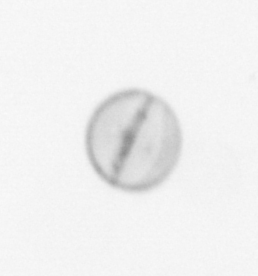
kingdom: Chromista
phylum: Ochrophyta
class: Bacillariophyceae
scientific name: Bacillariophyceae
